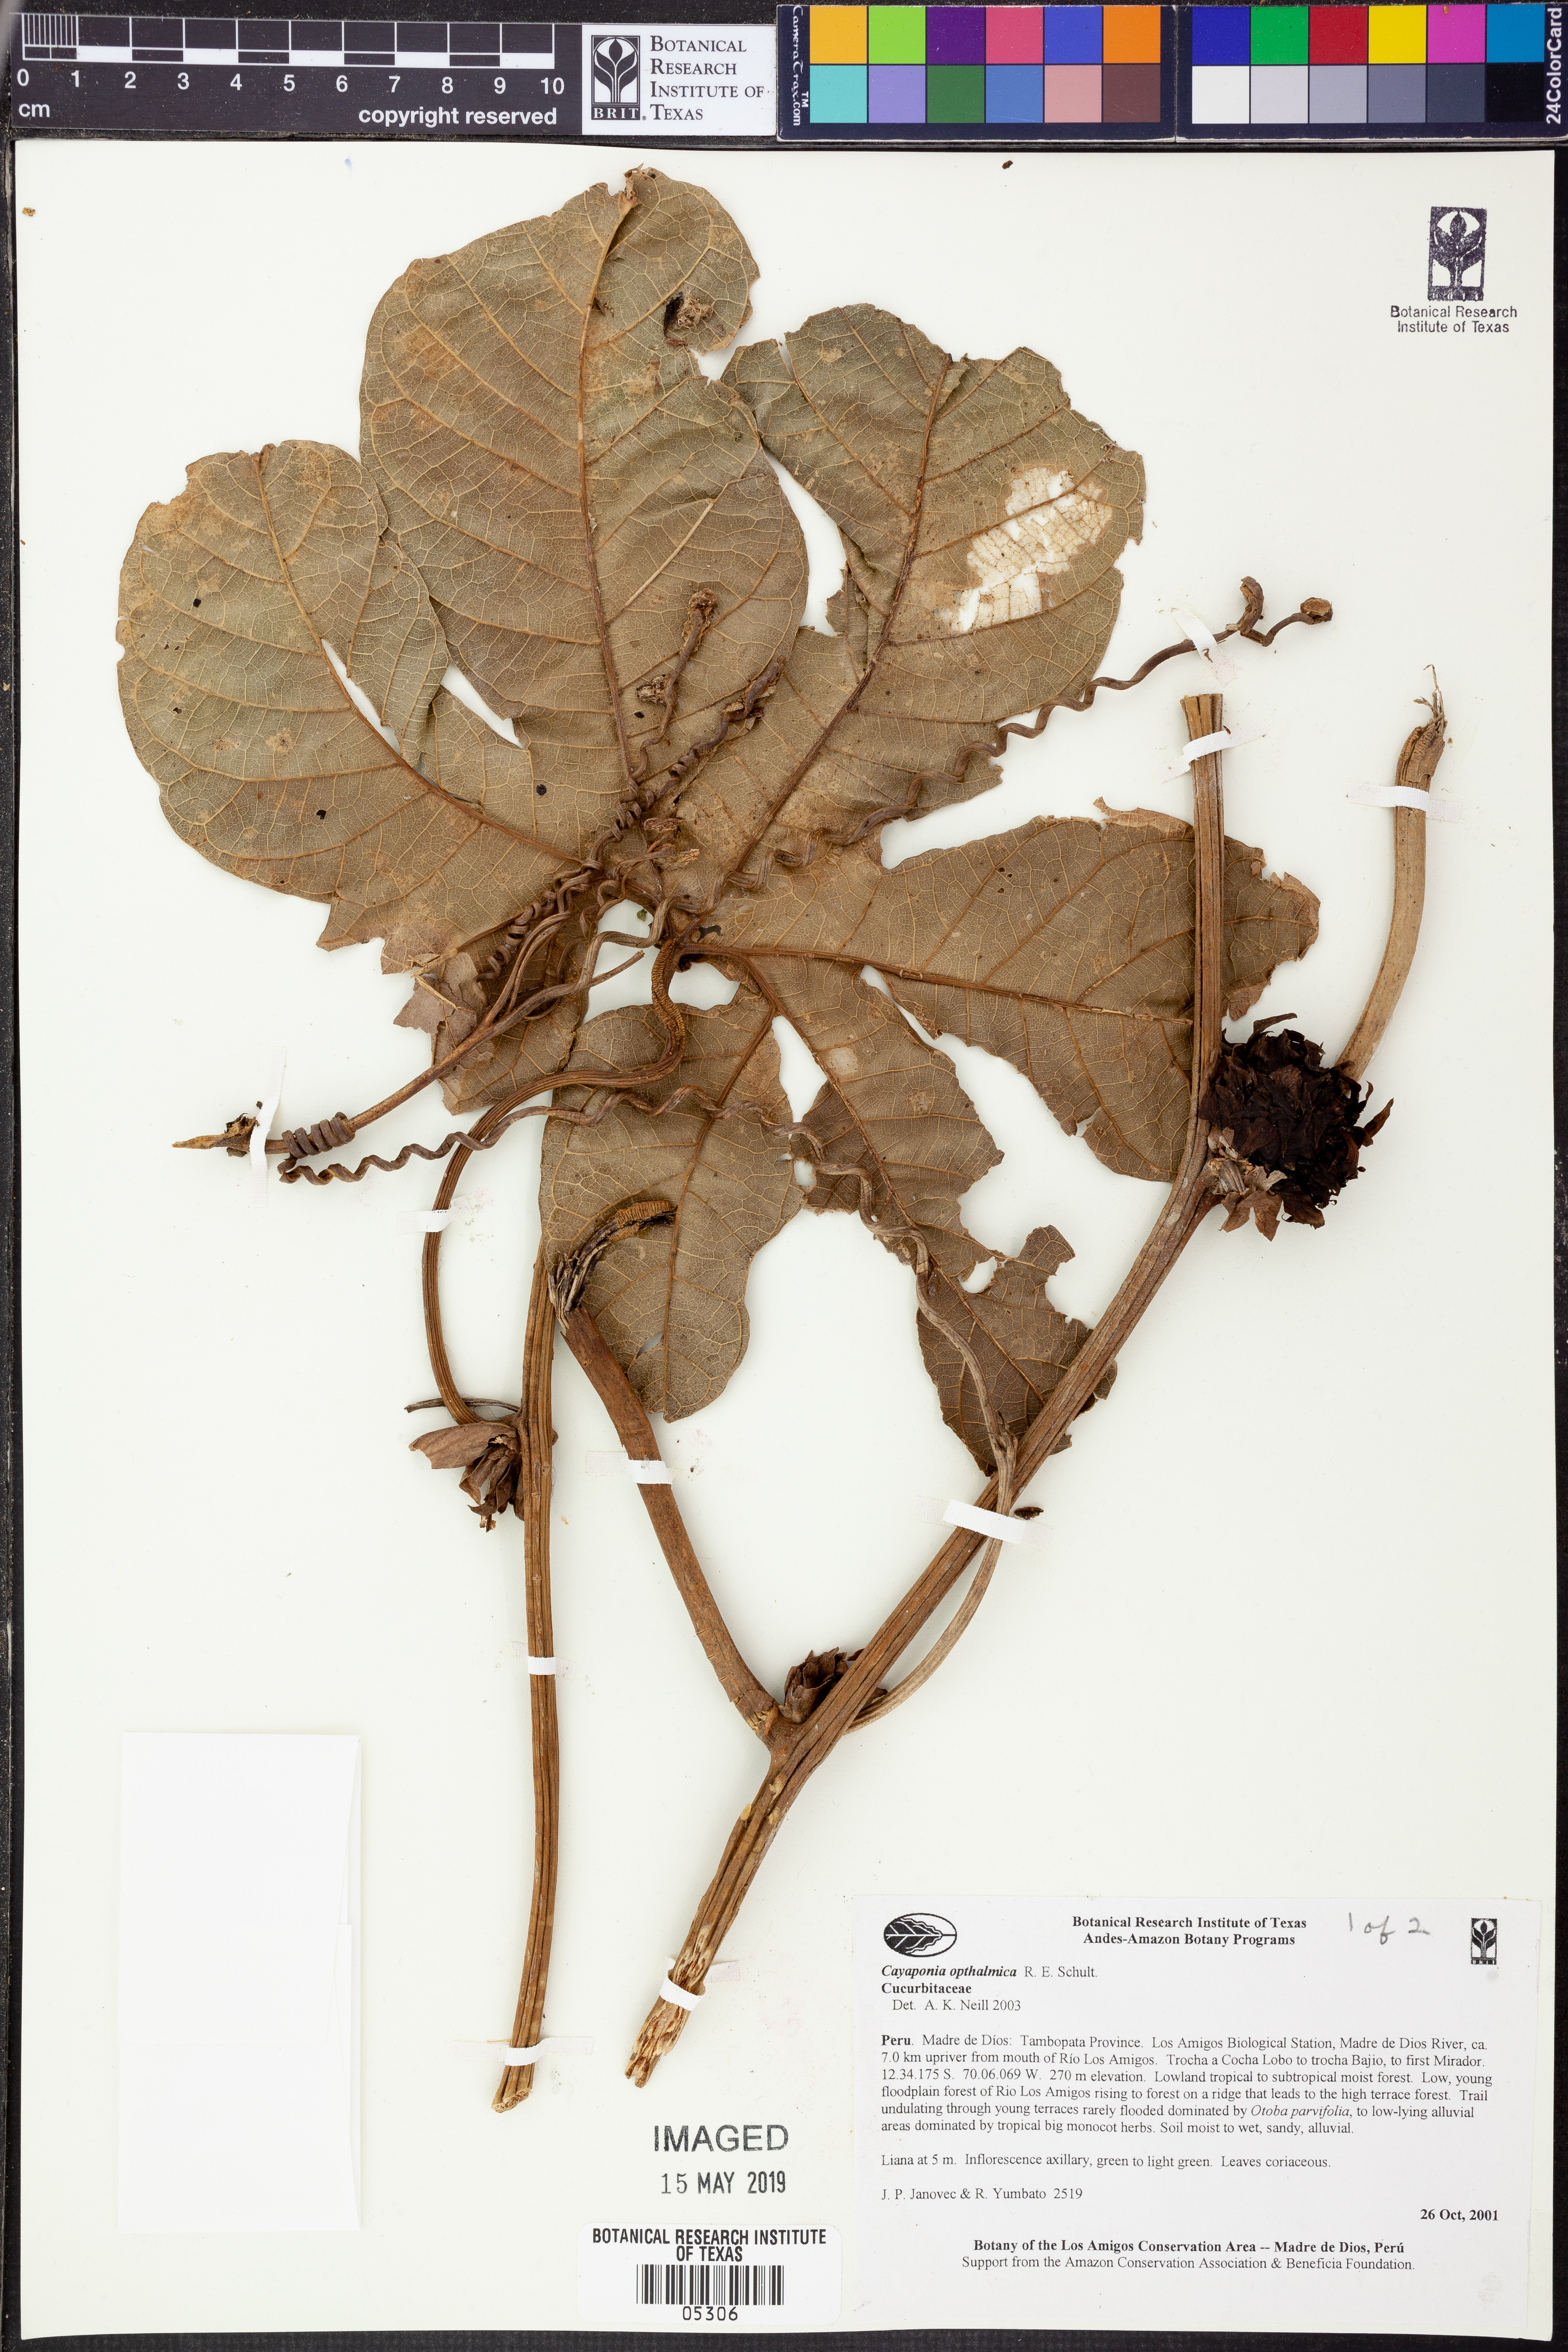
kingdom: Plantae
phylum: Tracheophyta
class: Magnoliopsida
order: Cucurbitales
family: Cucurbitaceae
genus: Cayaponia
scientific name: Cayaponia
